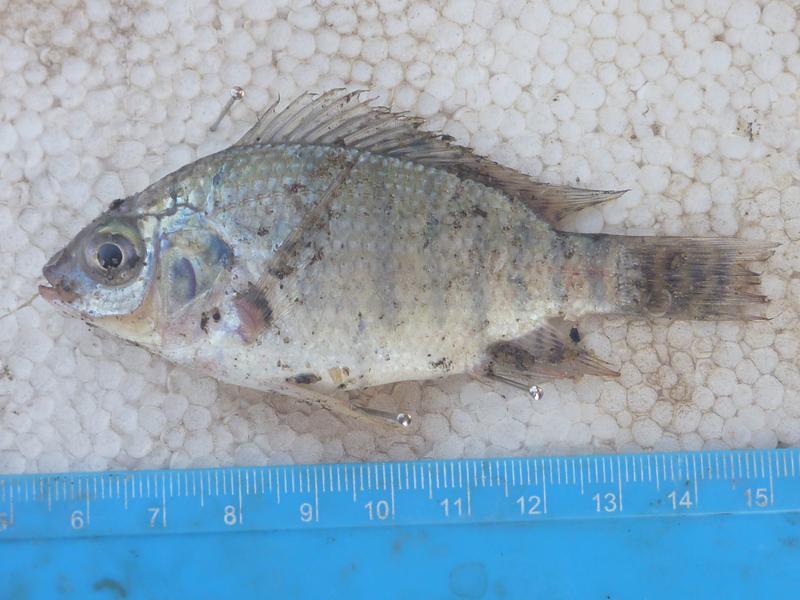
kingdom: Animalia
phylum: Chordata
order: Perciformes
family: Cichlidae
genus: Oreochromis
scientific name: Oreochromis niloticus
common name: Nile tilapia
